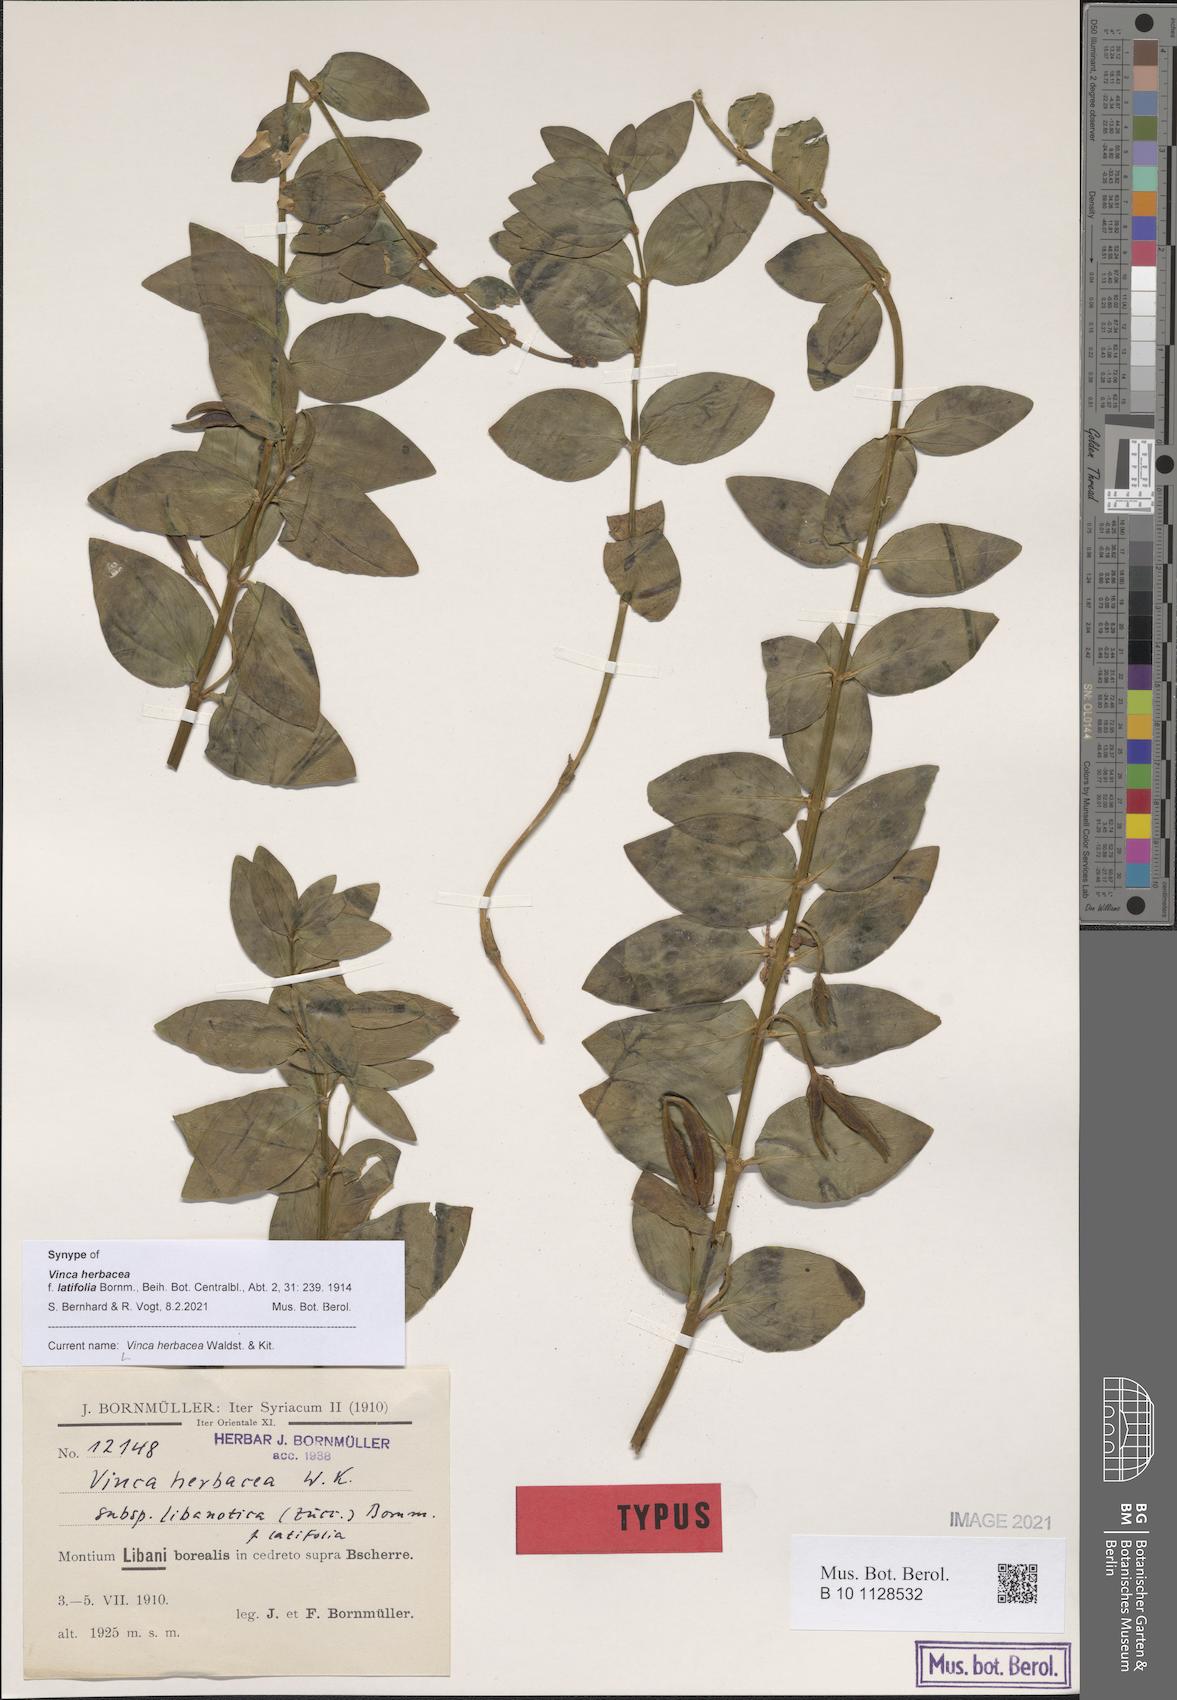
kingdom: Plantae
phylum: Tracheophyta
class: Magnoliopsida
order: Gentianales
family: Apocynaceae
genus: Vinca
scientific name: Vinca herbacea
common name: Herbaceous periwinkle
